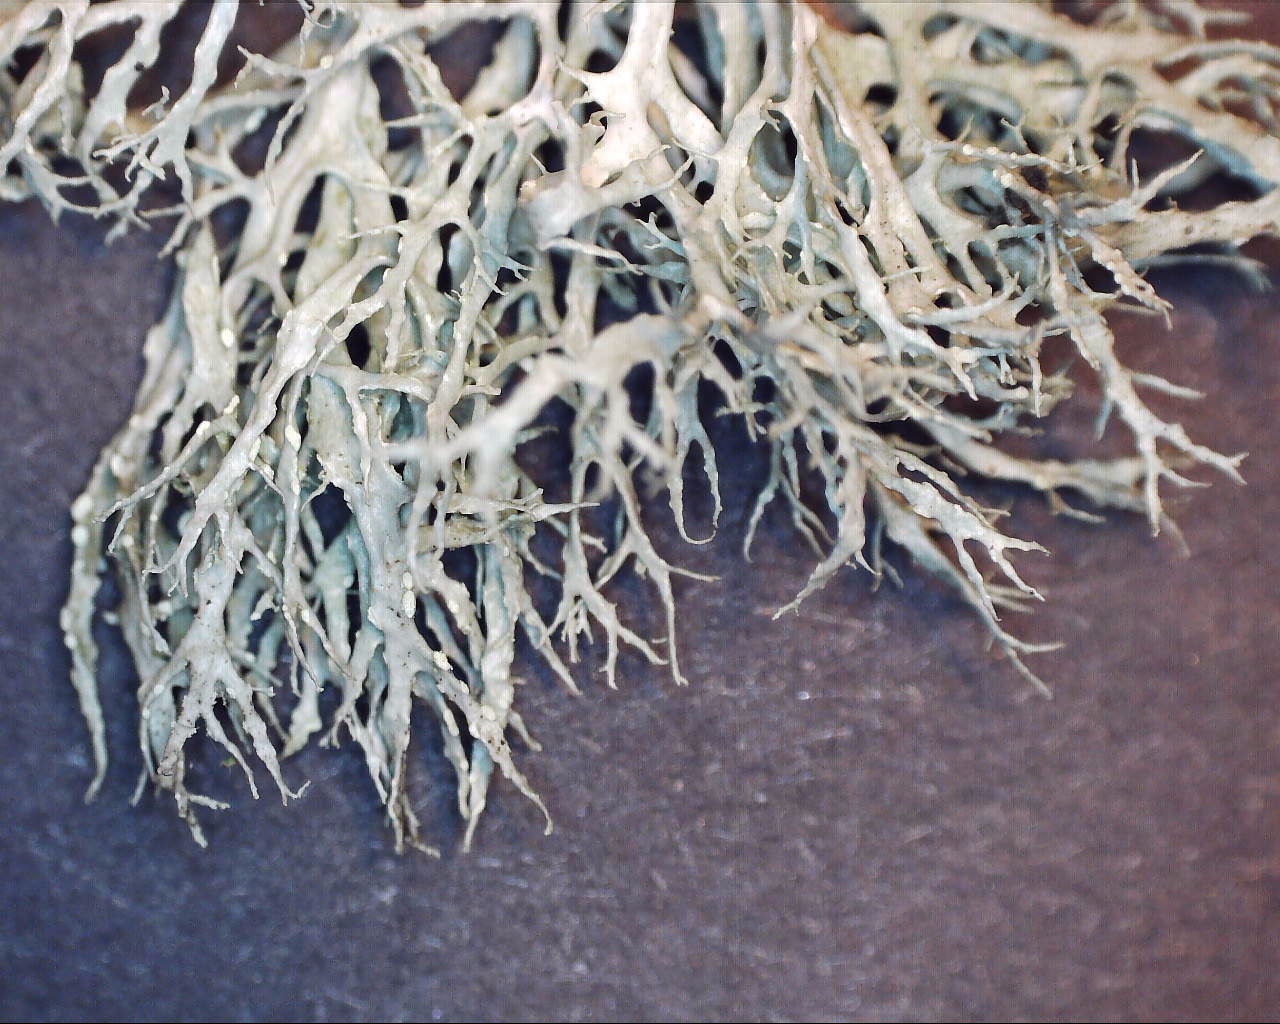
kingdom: Fungi
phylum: Ascomycota
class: Lecanoromycetes
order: Lecanorales
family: Ramalinaceae
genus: Ramalina
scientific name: Ramalina farinacea
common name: melet grenlav
